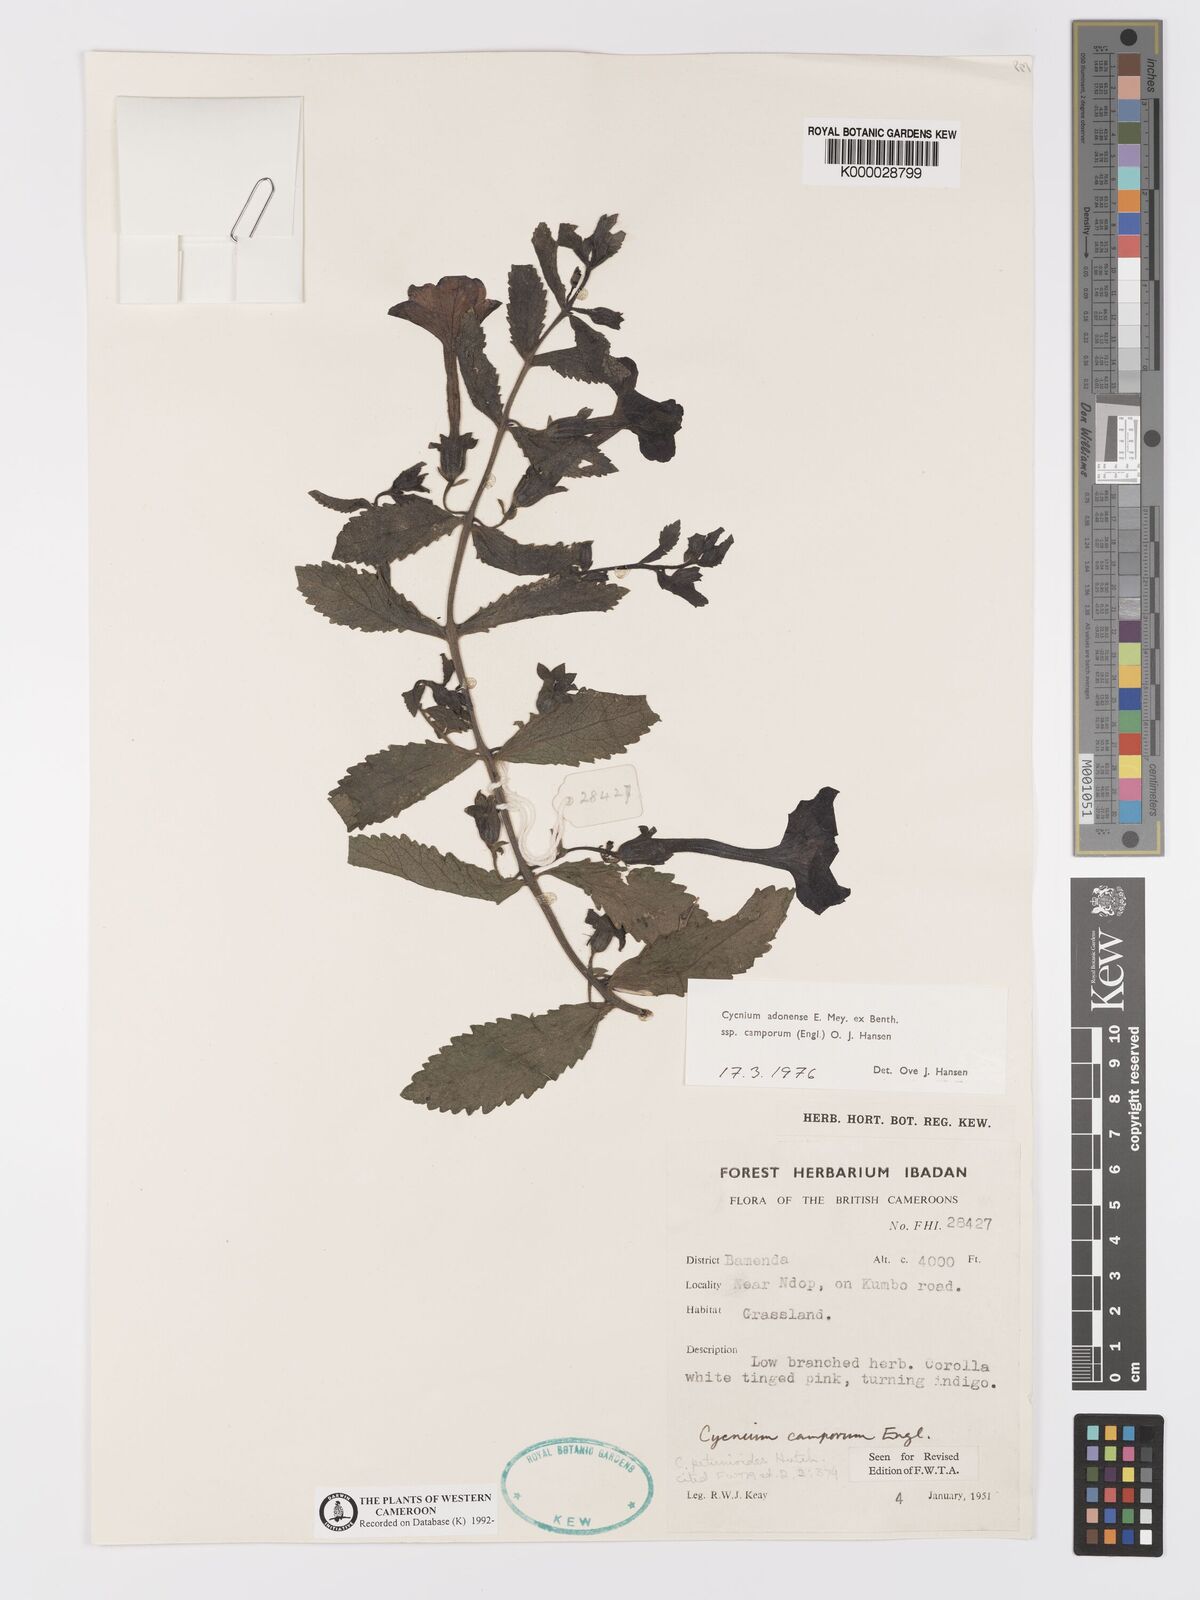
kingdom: Plantae
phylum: Tracheophyta
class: Magnoliopsida
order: Lamiales
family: Orobanchaceae
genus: Cycnium
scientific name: Cycnium adoense
